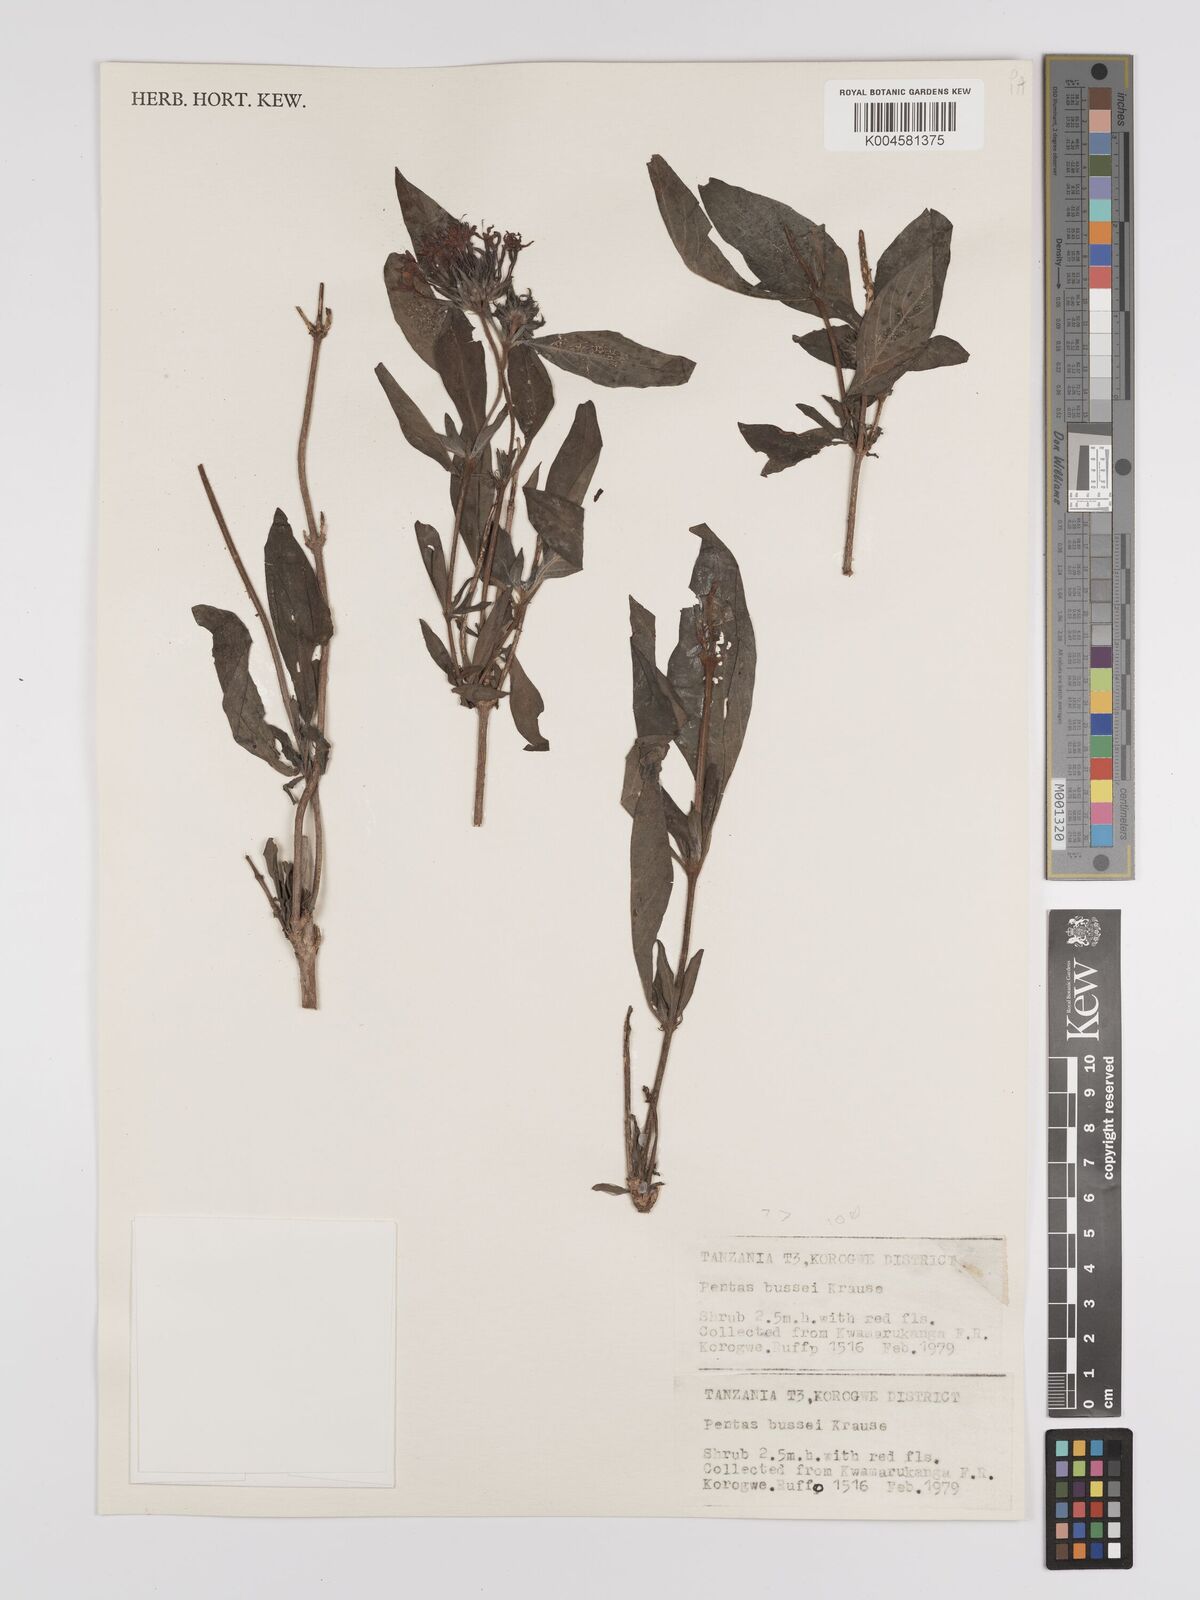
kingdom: Plantae
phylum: Tracheophyta
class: Magnoliopsida
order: Gentianales
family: Rubiaceae
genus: Rhodopentas
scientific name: Rhodopentas bussei
